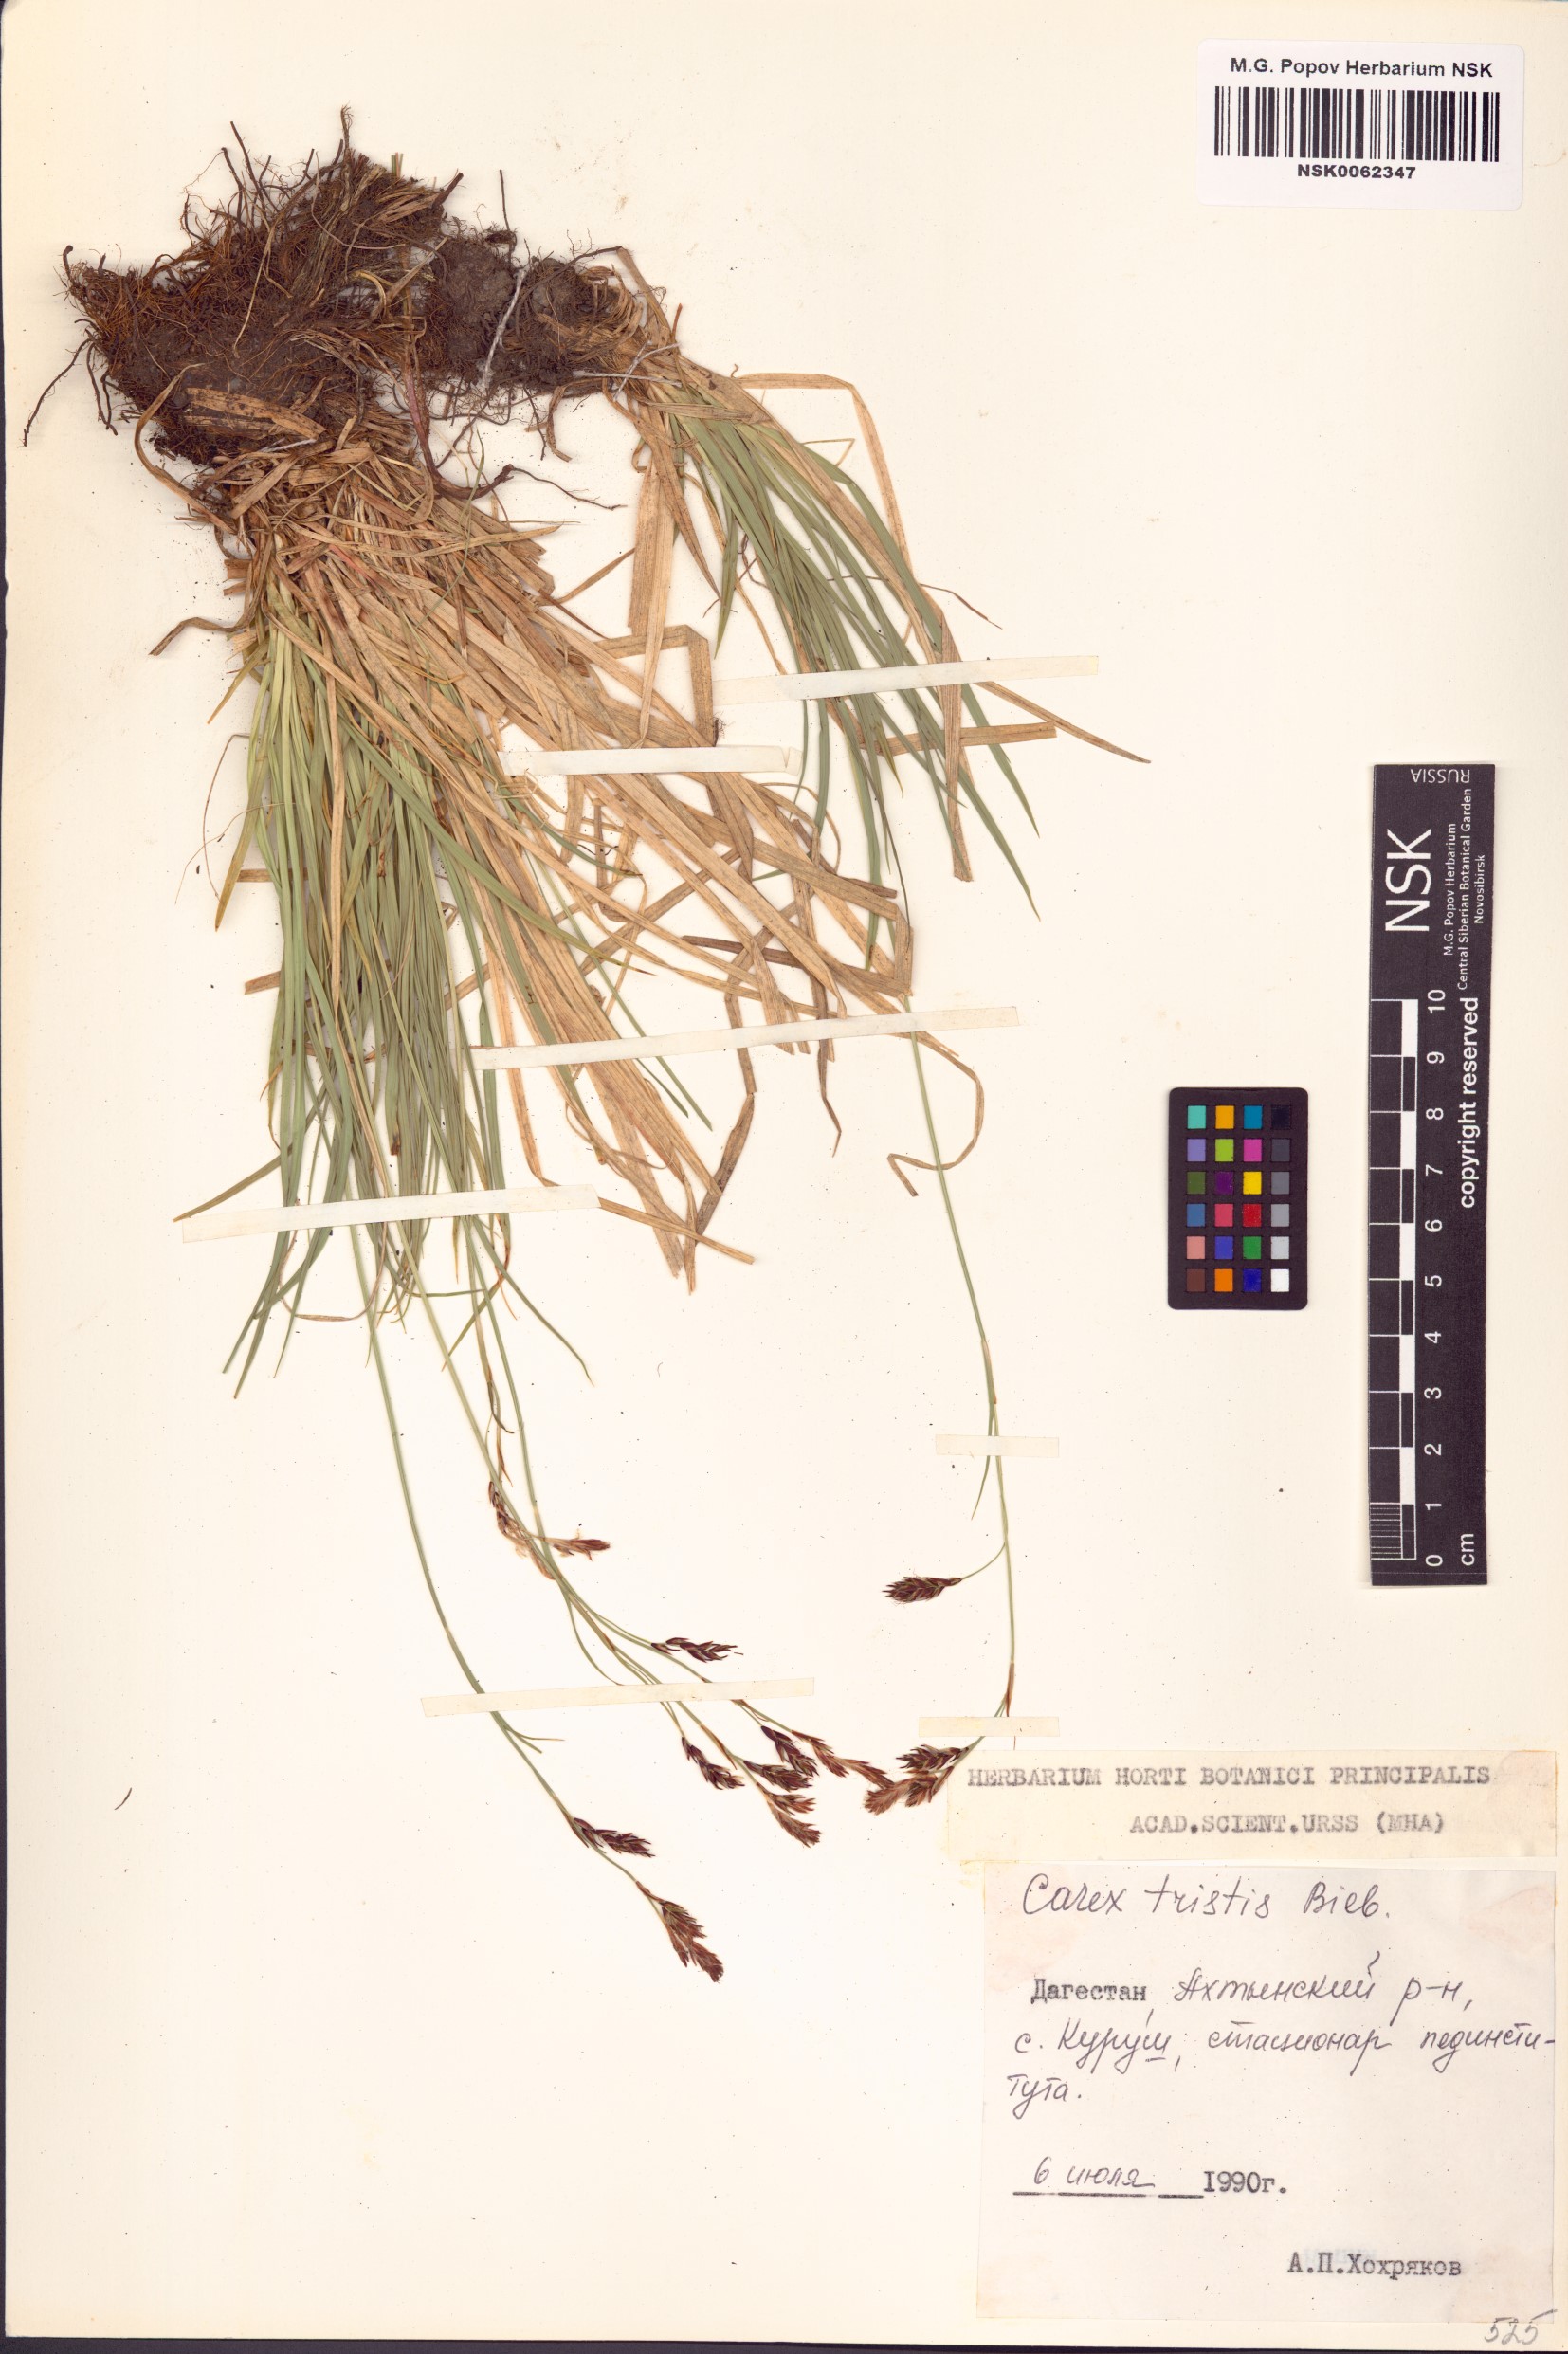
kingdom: Plantae
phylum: Tracheophyta
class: Liliopsida
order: Poales
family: Cyperaceae
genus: Carex
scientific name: Carex tristis
